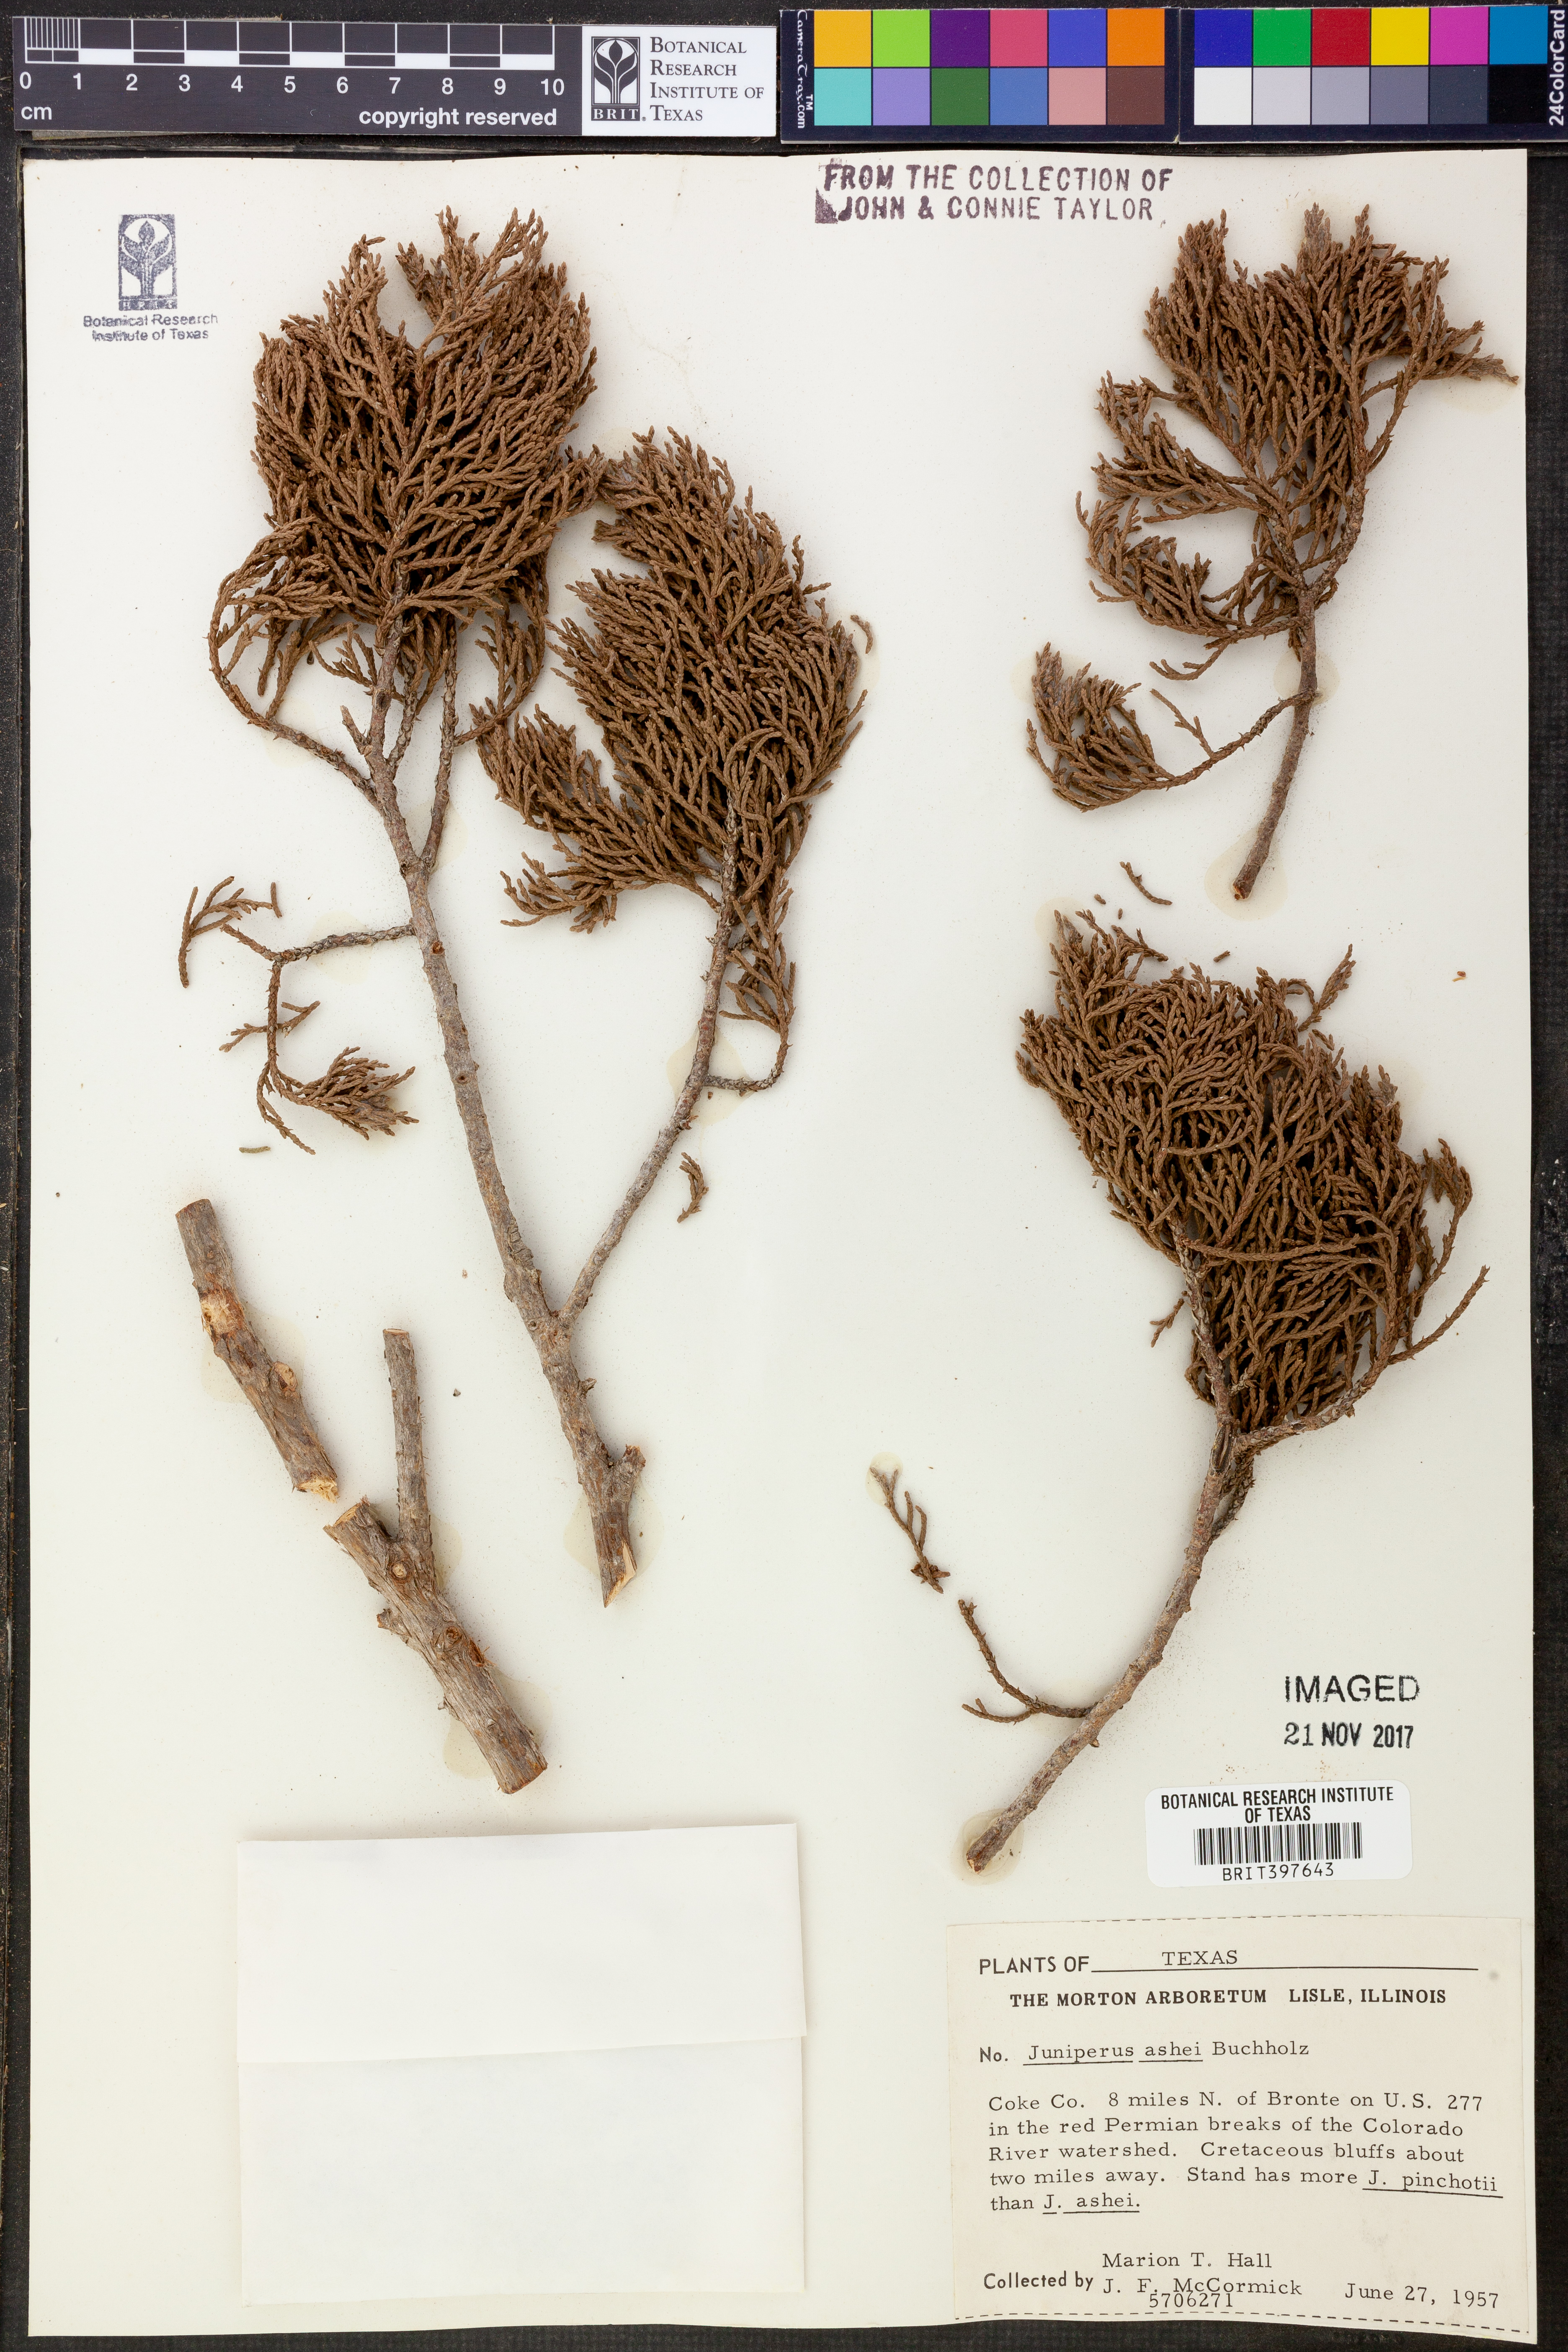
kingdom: Plantae
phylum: Tracheophyta
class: Pinopsida
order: Pinales
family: Cupressaceae
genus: Juniperus
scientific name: Juniperus ashei
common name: Mexican juniper
